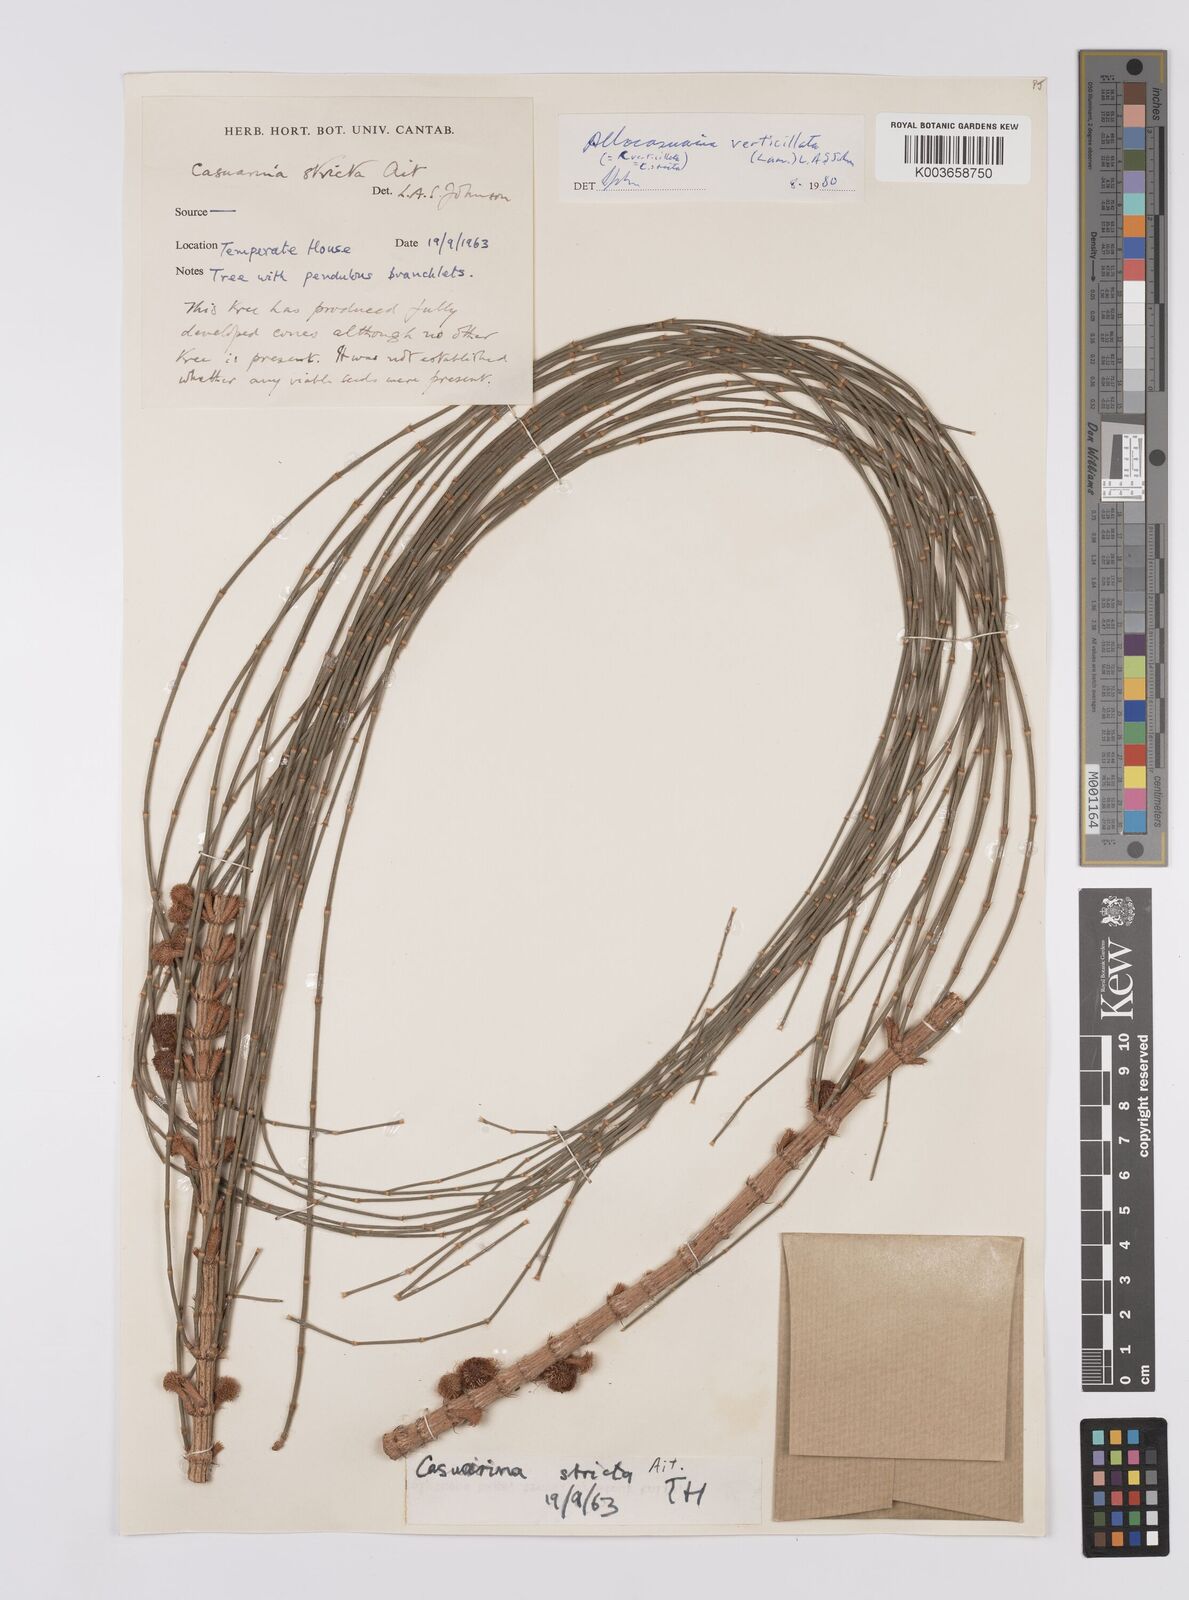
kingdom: Plantae
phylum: Tracheophyta
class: Magnoliopsida
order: Fagales
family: Casuarinaceae
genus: Allocasuarina
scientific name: Allocasuarina verticillata
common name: Drooping she-oak
